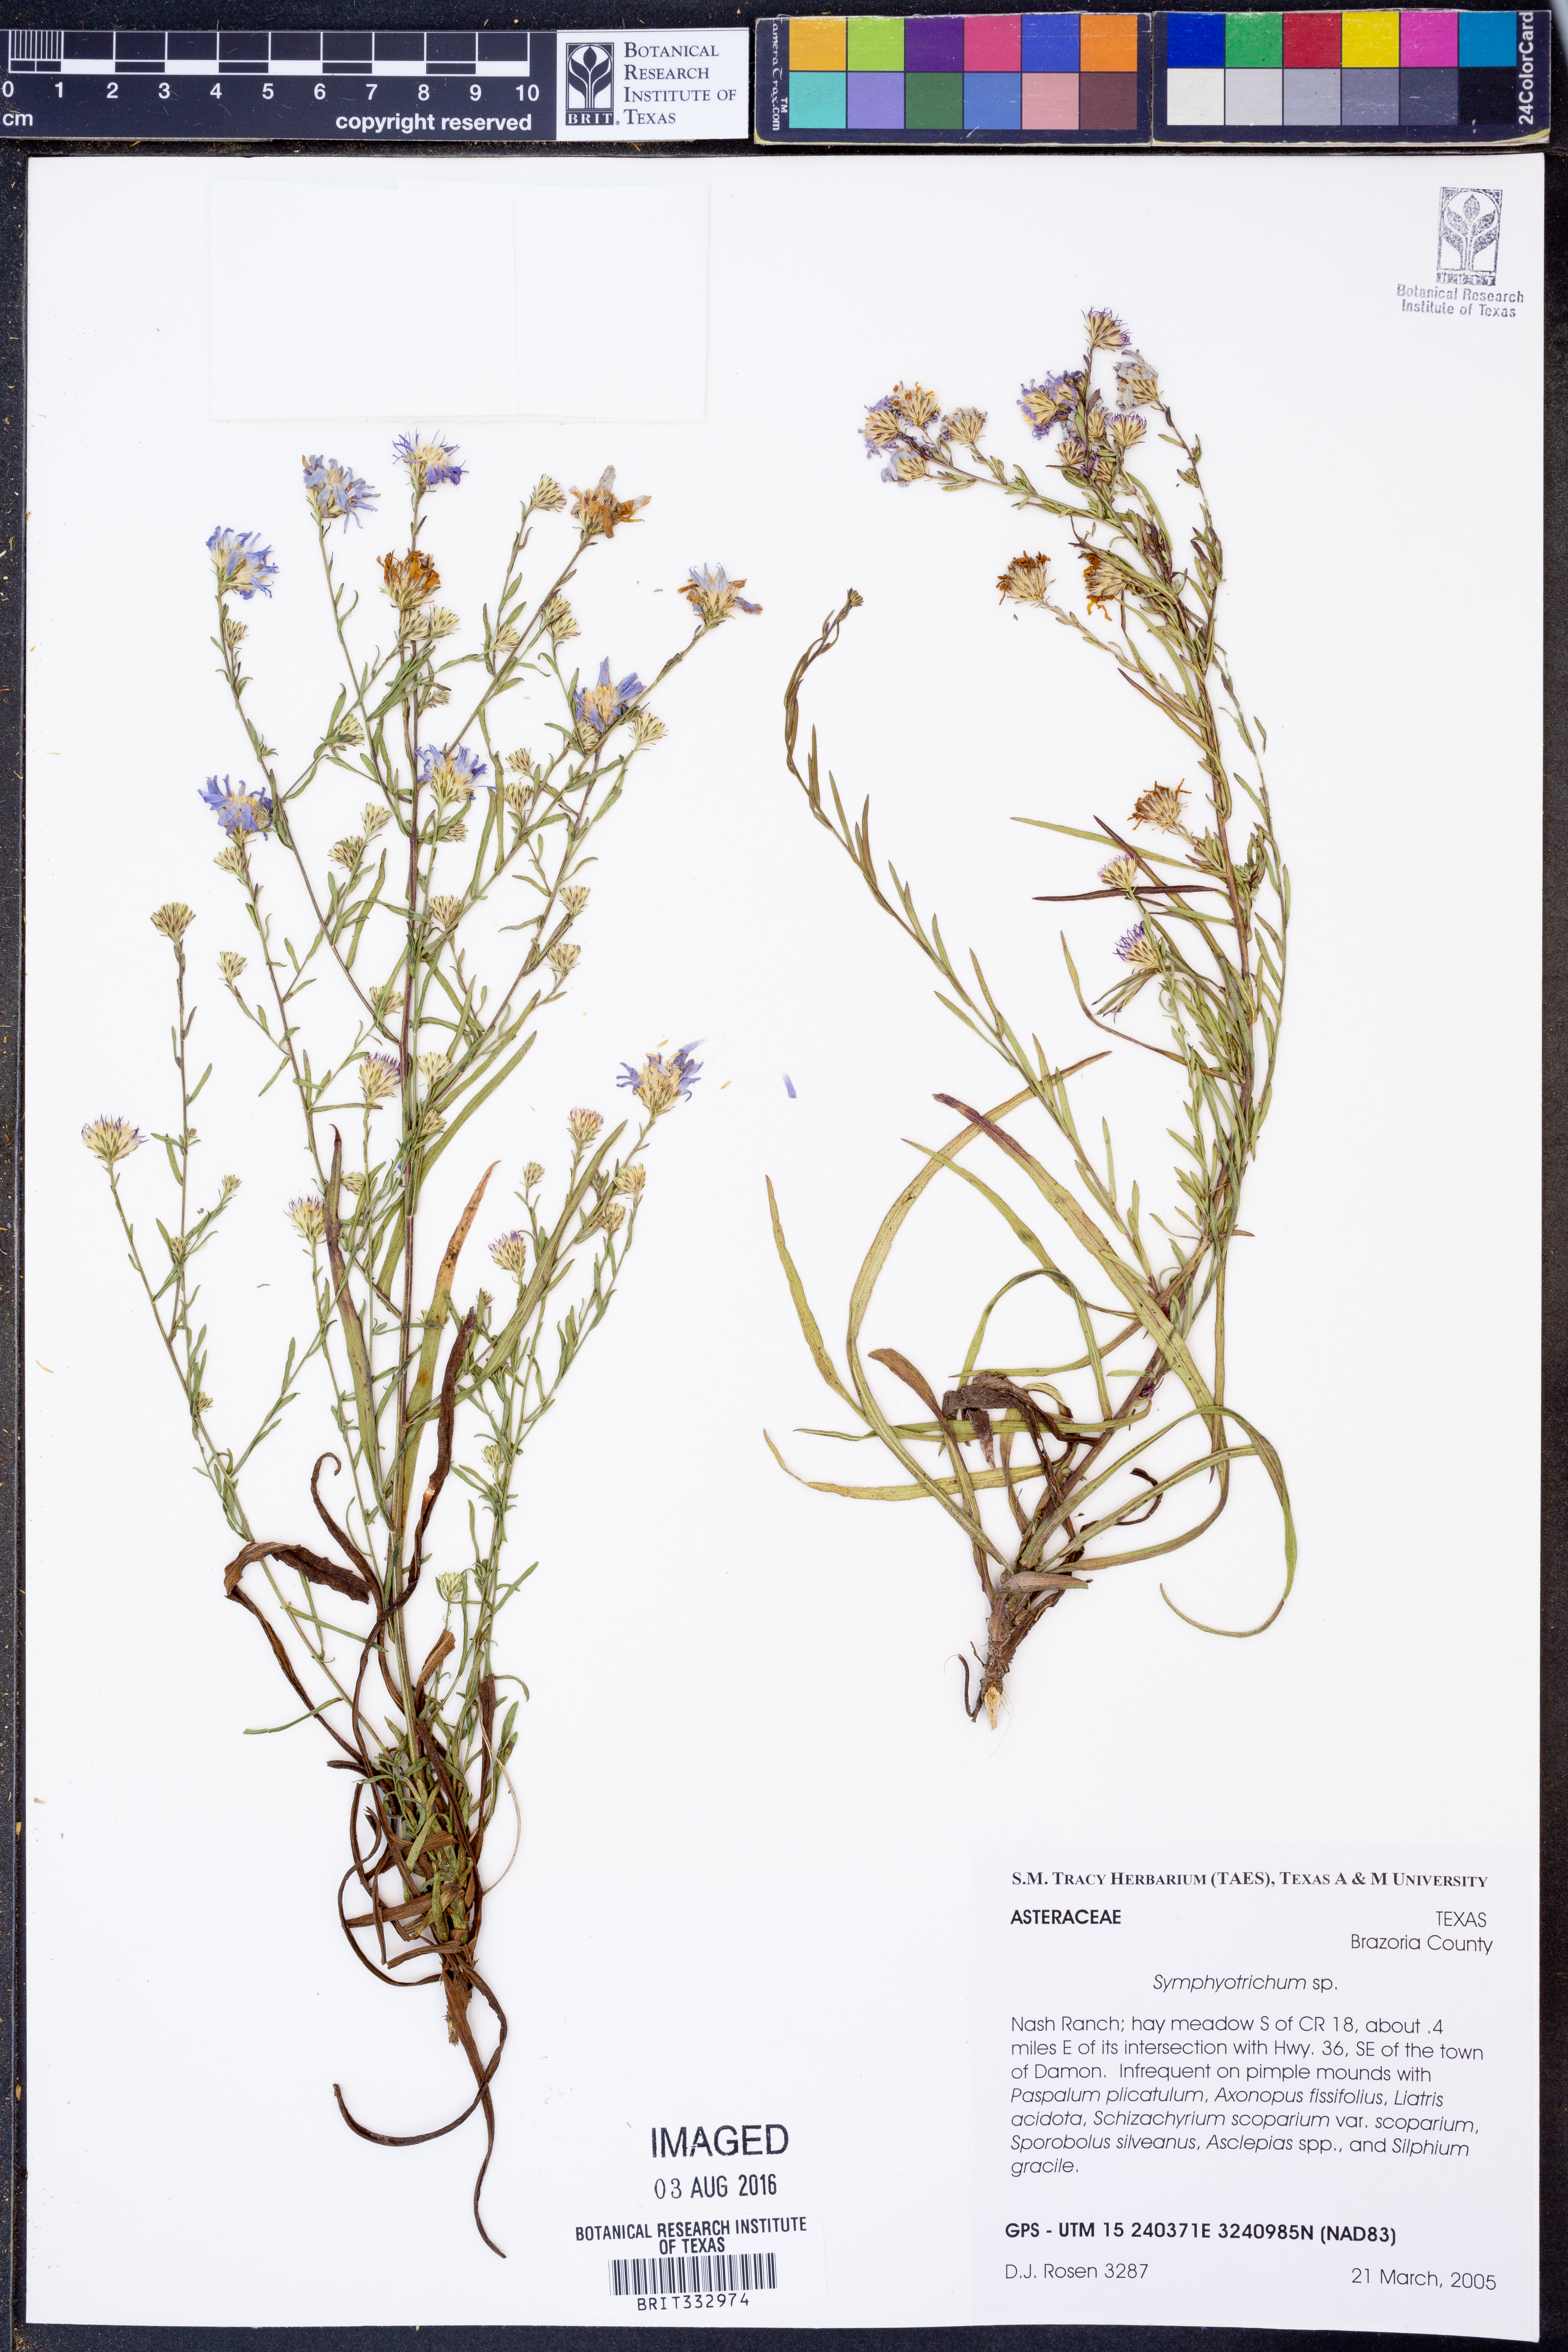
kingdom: Plantae
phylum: Tracheophyta
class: Magnoliopsida
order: Asterales
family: Asteraceae
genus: Symphyotrichum
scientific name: Symphyotrichum
